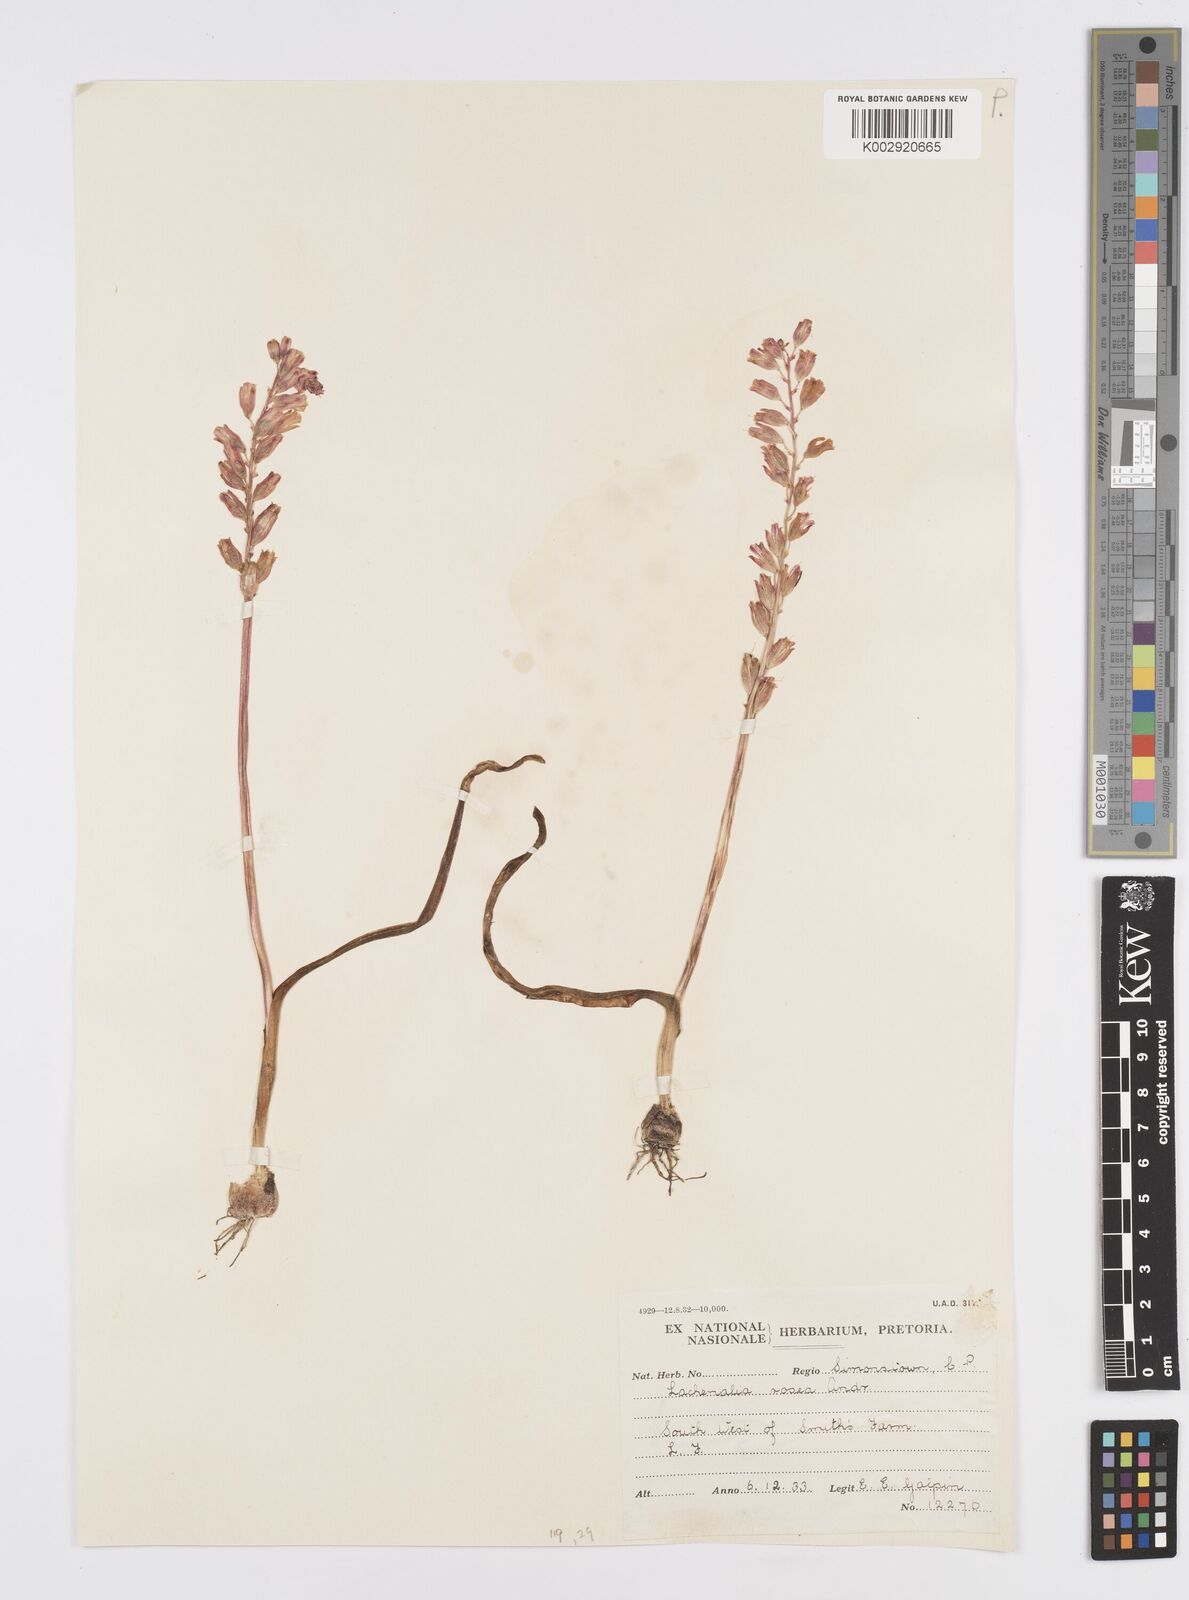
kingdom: Plantae
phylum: Tracheophyta
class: Liliopsida
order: Asparagales
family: Asparagaceae
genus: Lachenalia
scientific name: Lachenalia rosea
